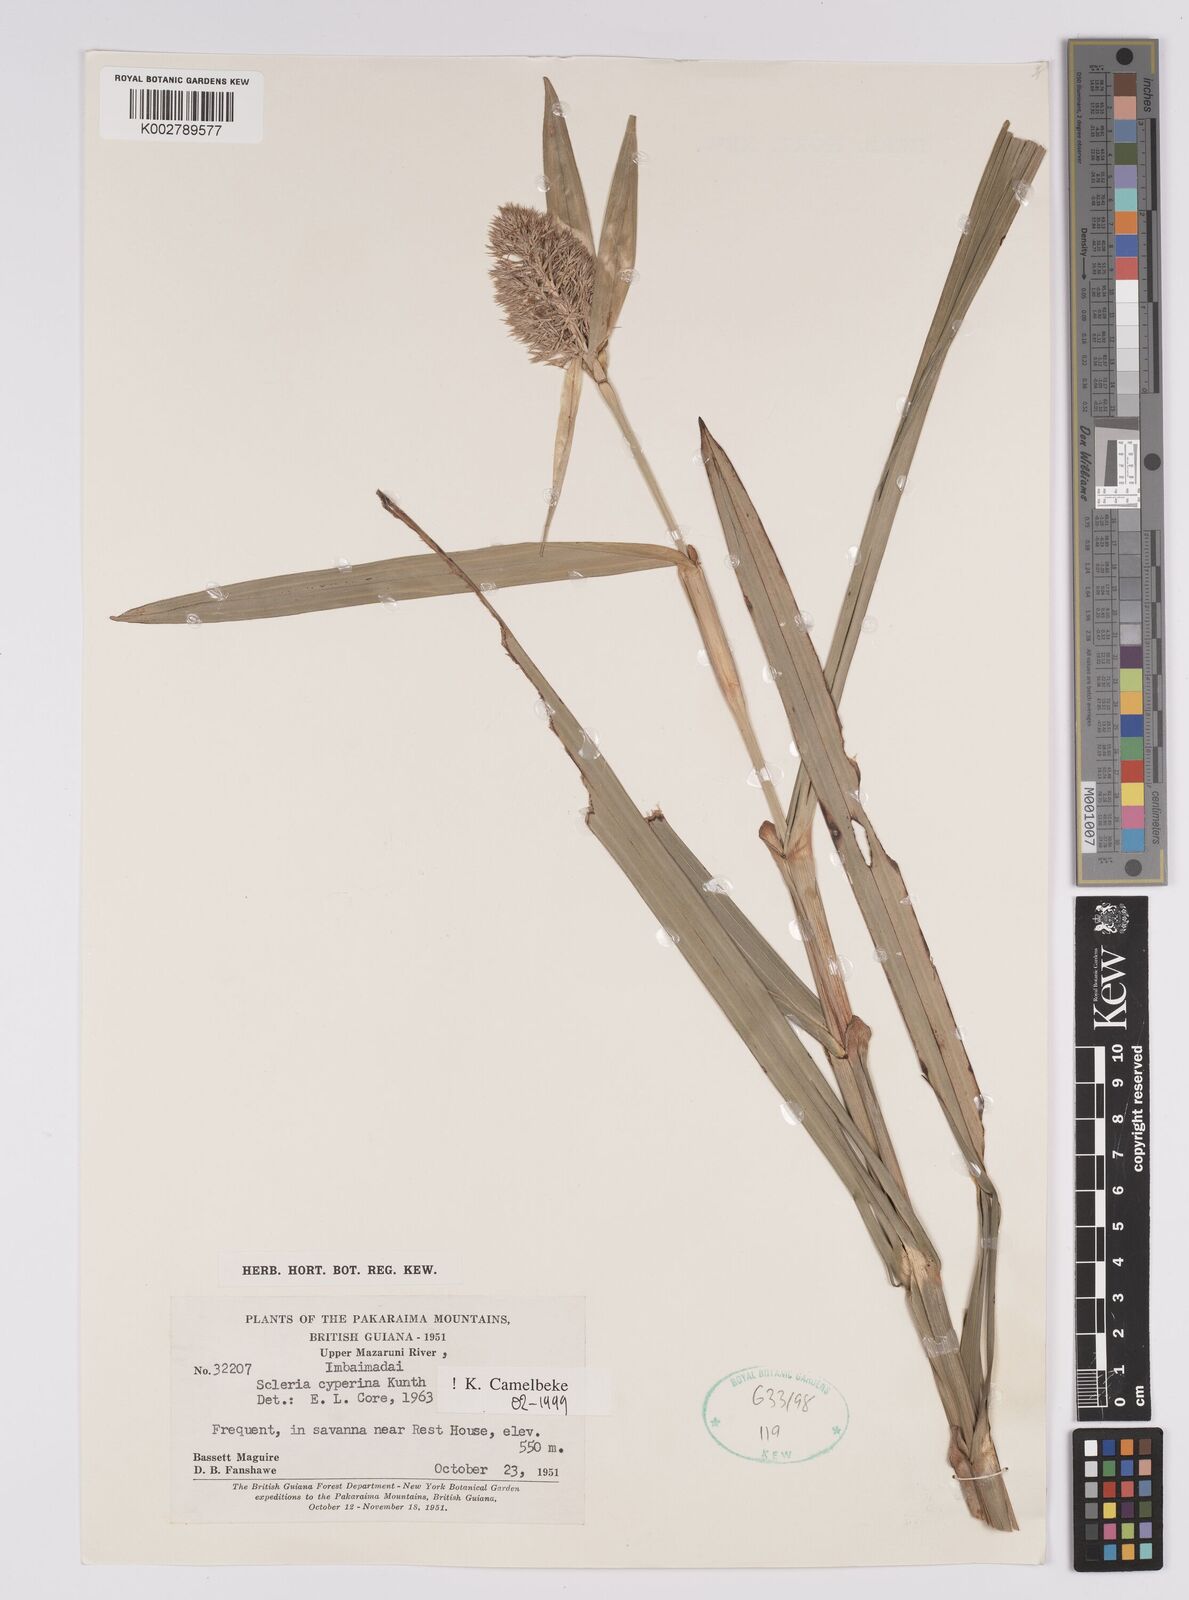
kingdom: Plantae
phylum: Tracheophyta
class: Liliopsida
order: Poales
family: Cyperaceae
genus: Scleria
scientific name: Scleria cyperina
